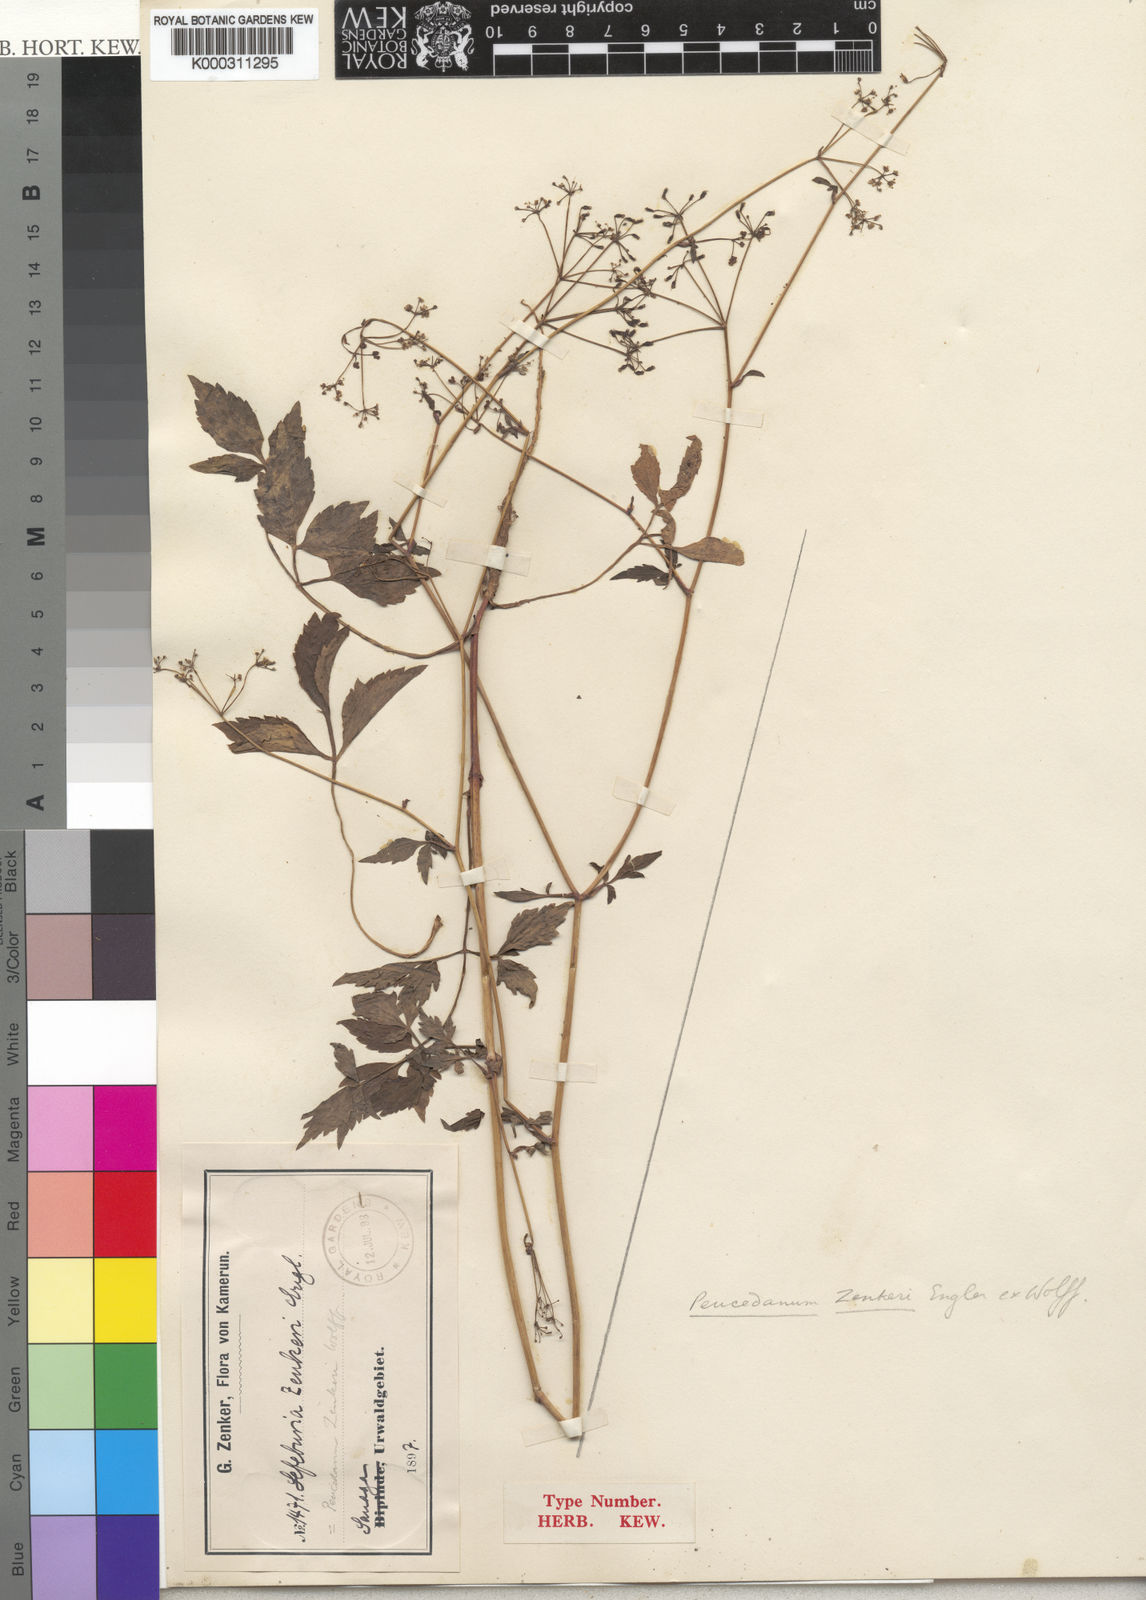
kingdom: Plantae
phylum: Tracheophyta
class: Magnoliopsida
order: Apiales
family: Apiaceae
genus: Peucedanum
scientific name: Peucedanum
